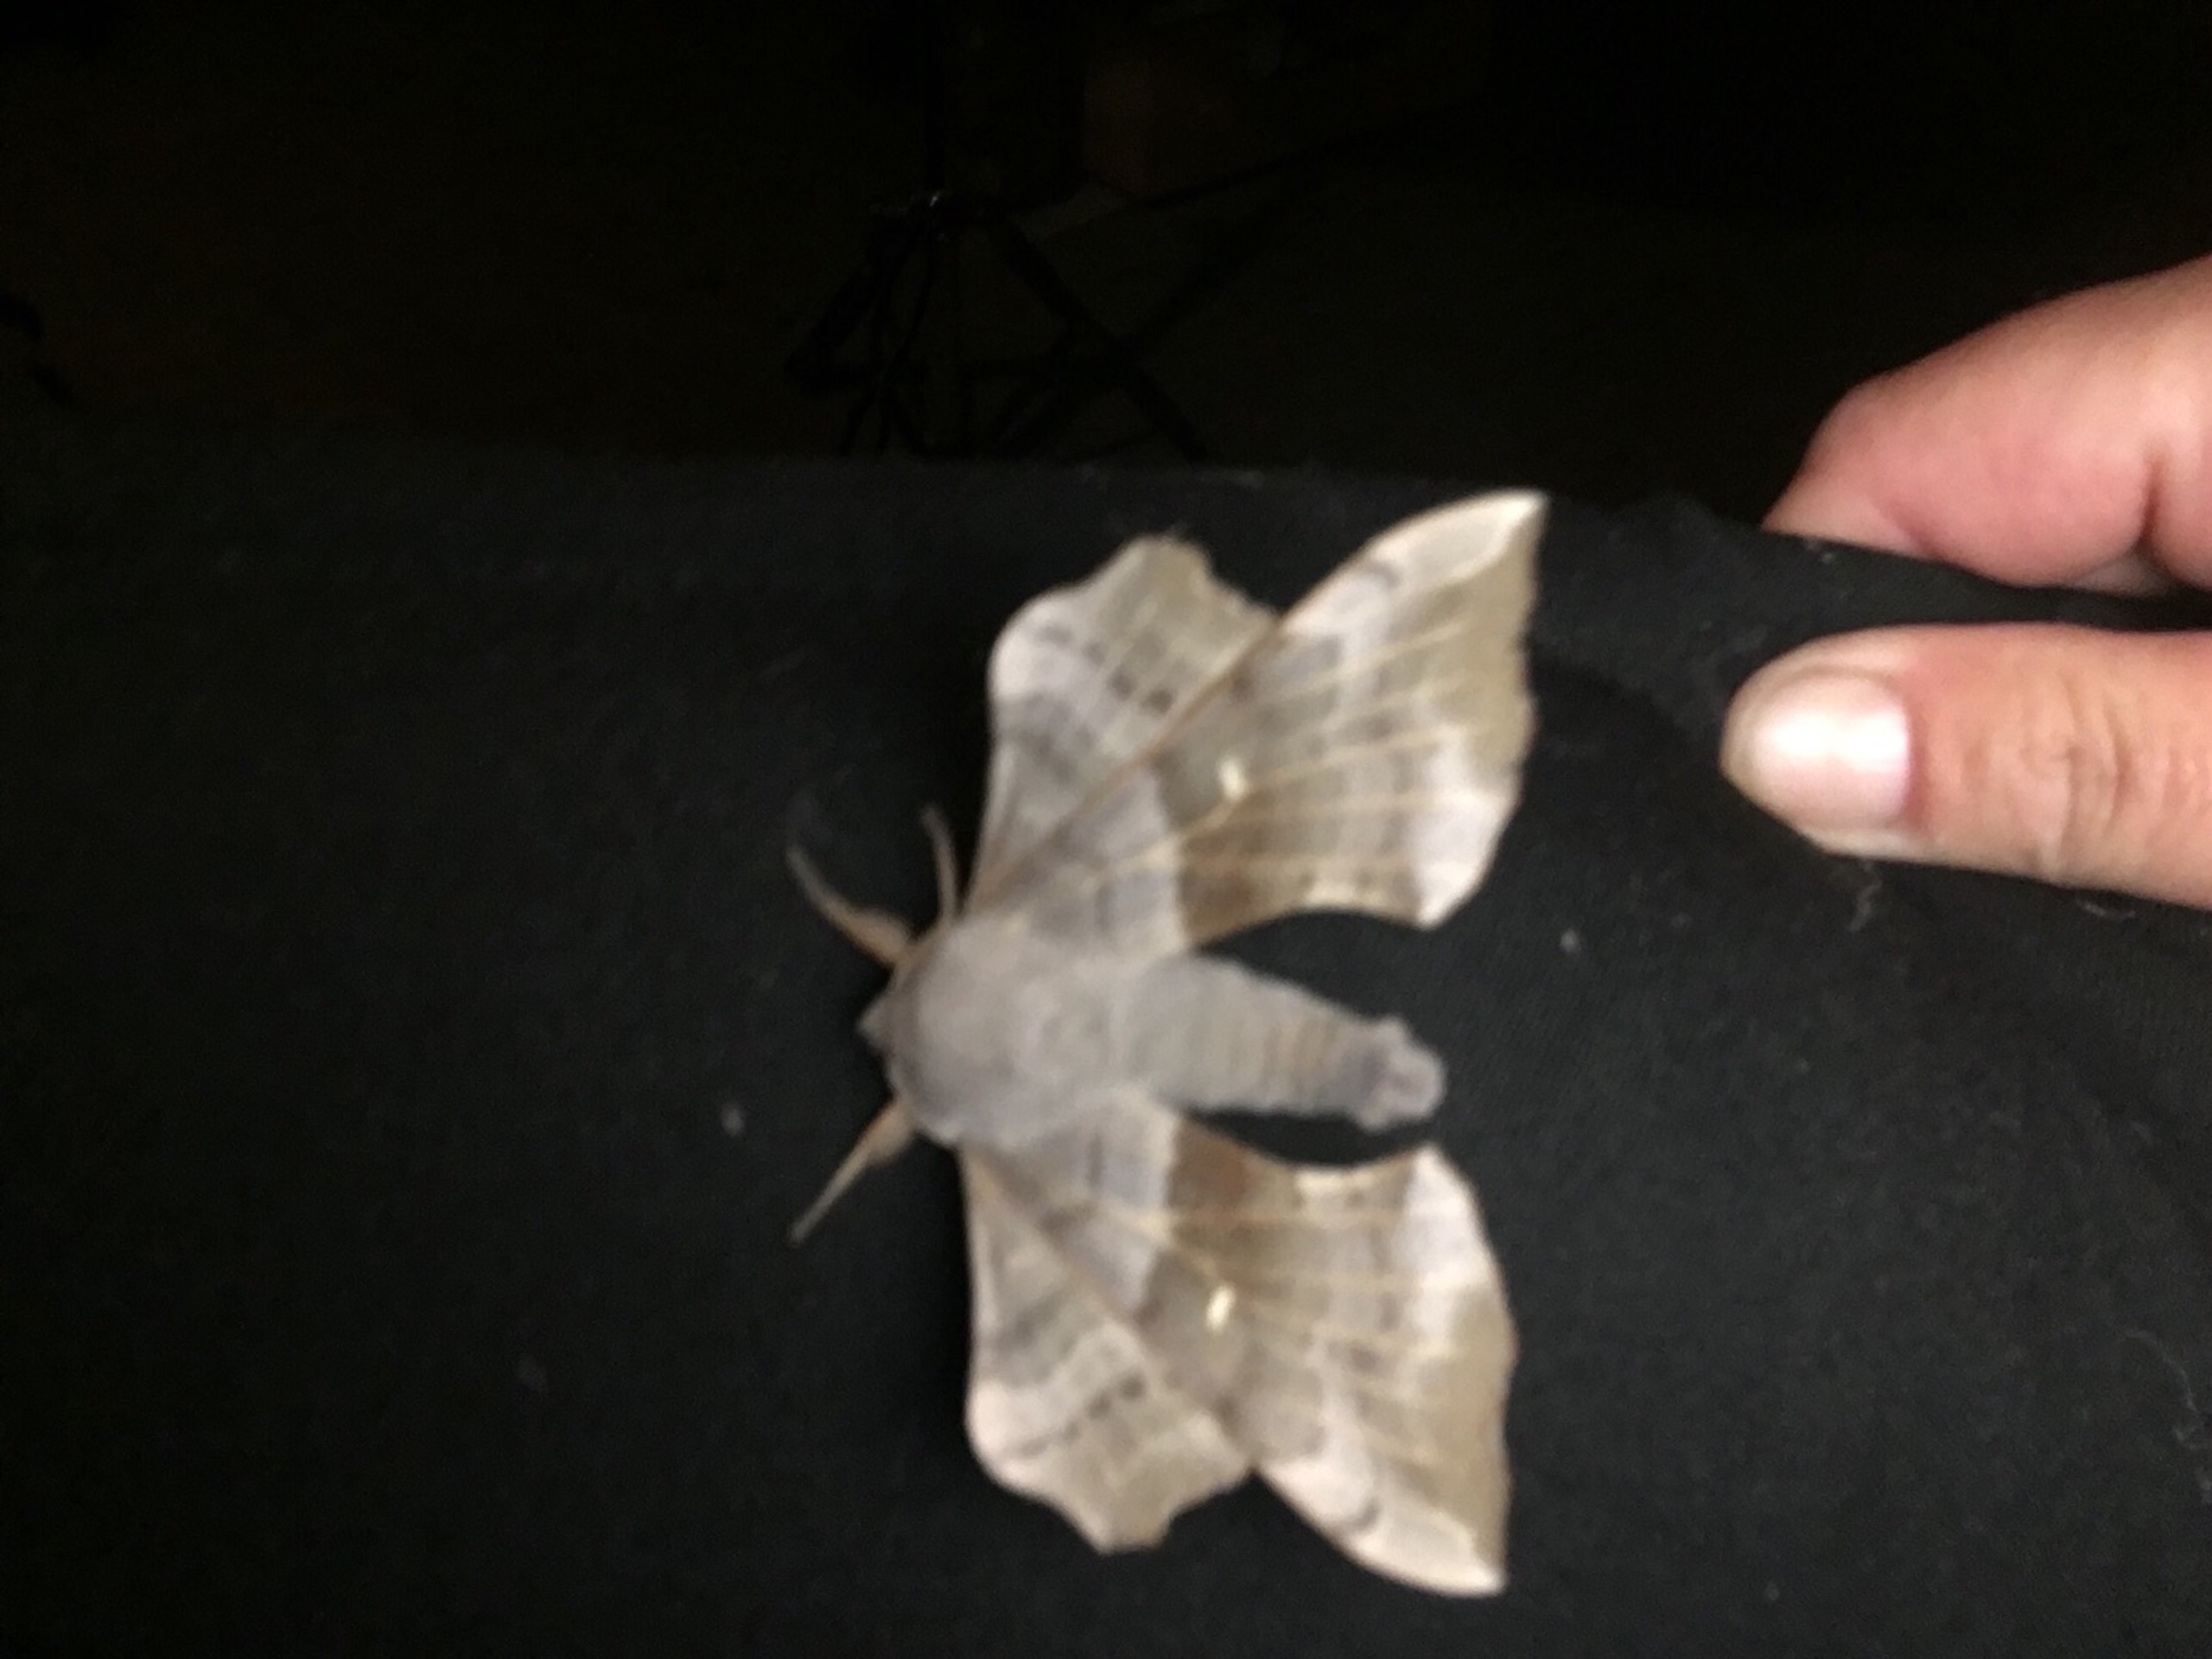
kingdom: Animalia
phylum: Arthropoda
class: Insecta
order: Lepidoptera
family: Sphingidae
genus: Laothoe
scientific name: Laothoe populi
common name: Poppelsværmer
